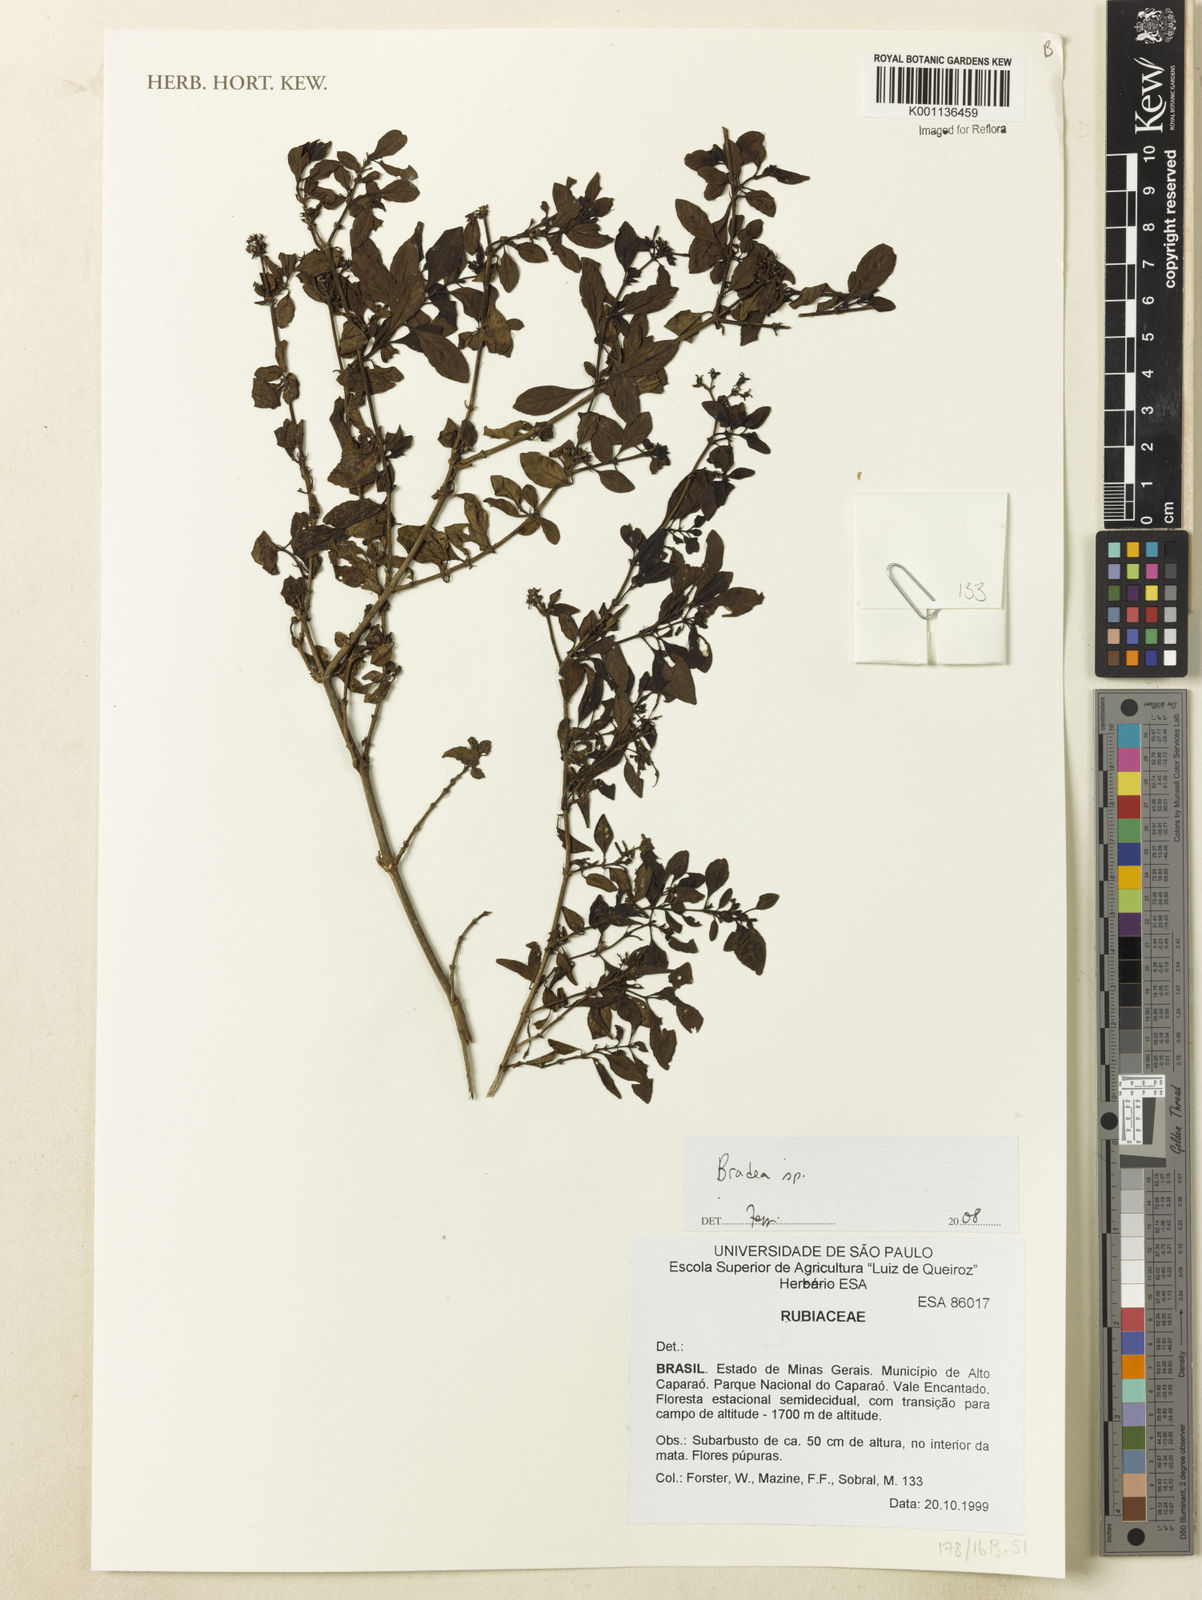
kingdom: Plantae
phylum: Tracheophyta
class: Magnoliopsida
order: Gentianales
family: Rubiaceae
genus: Bradea
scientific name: Bradea
